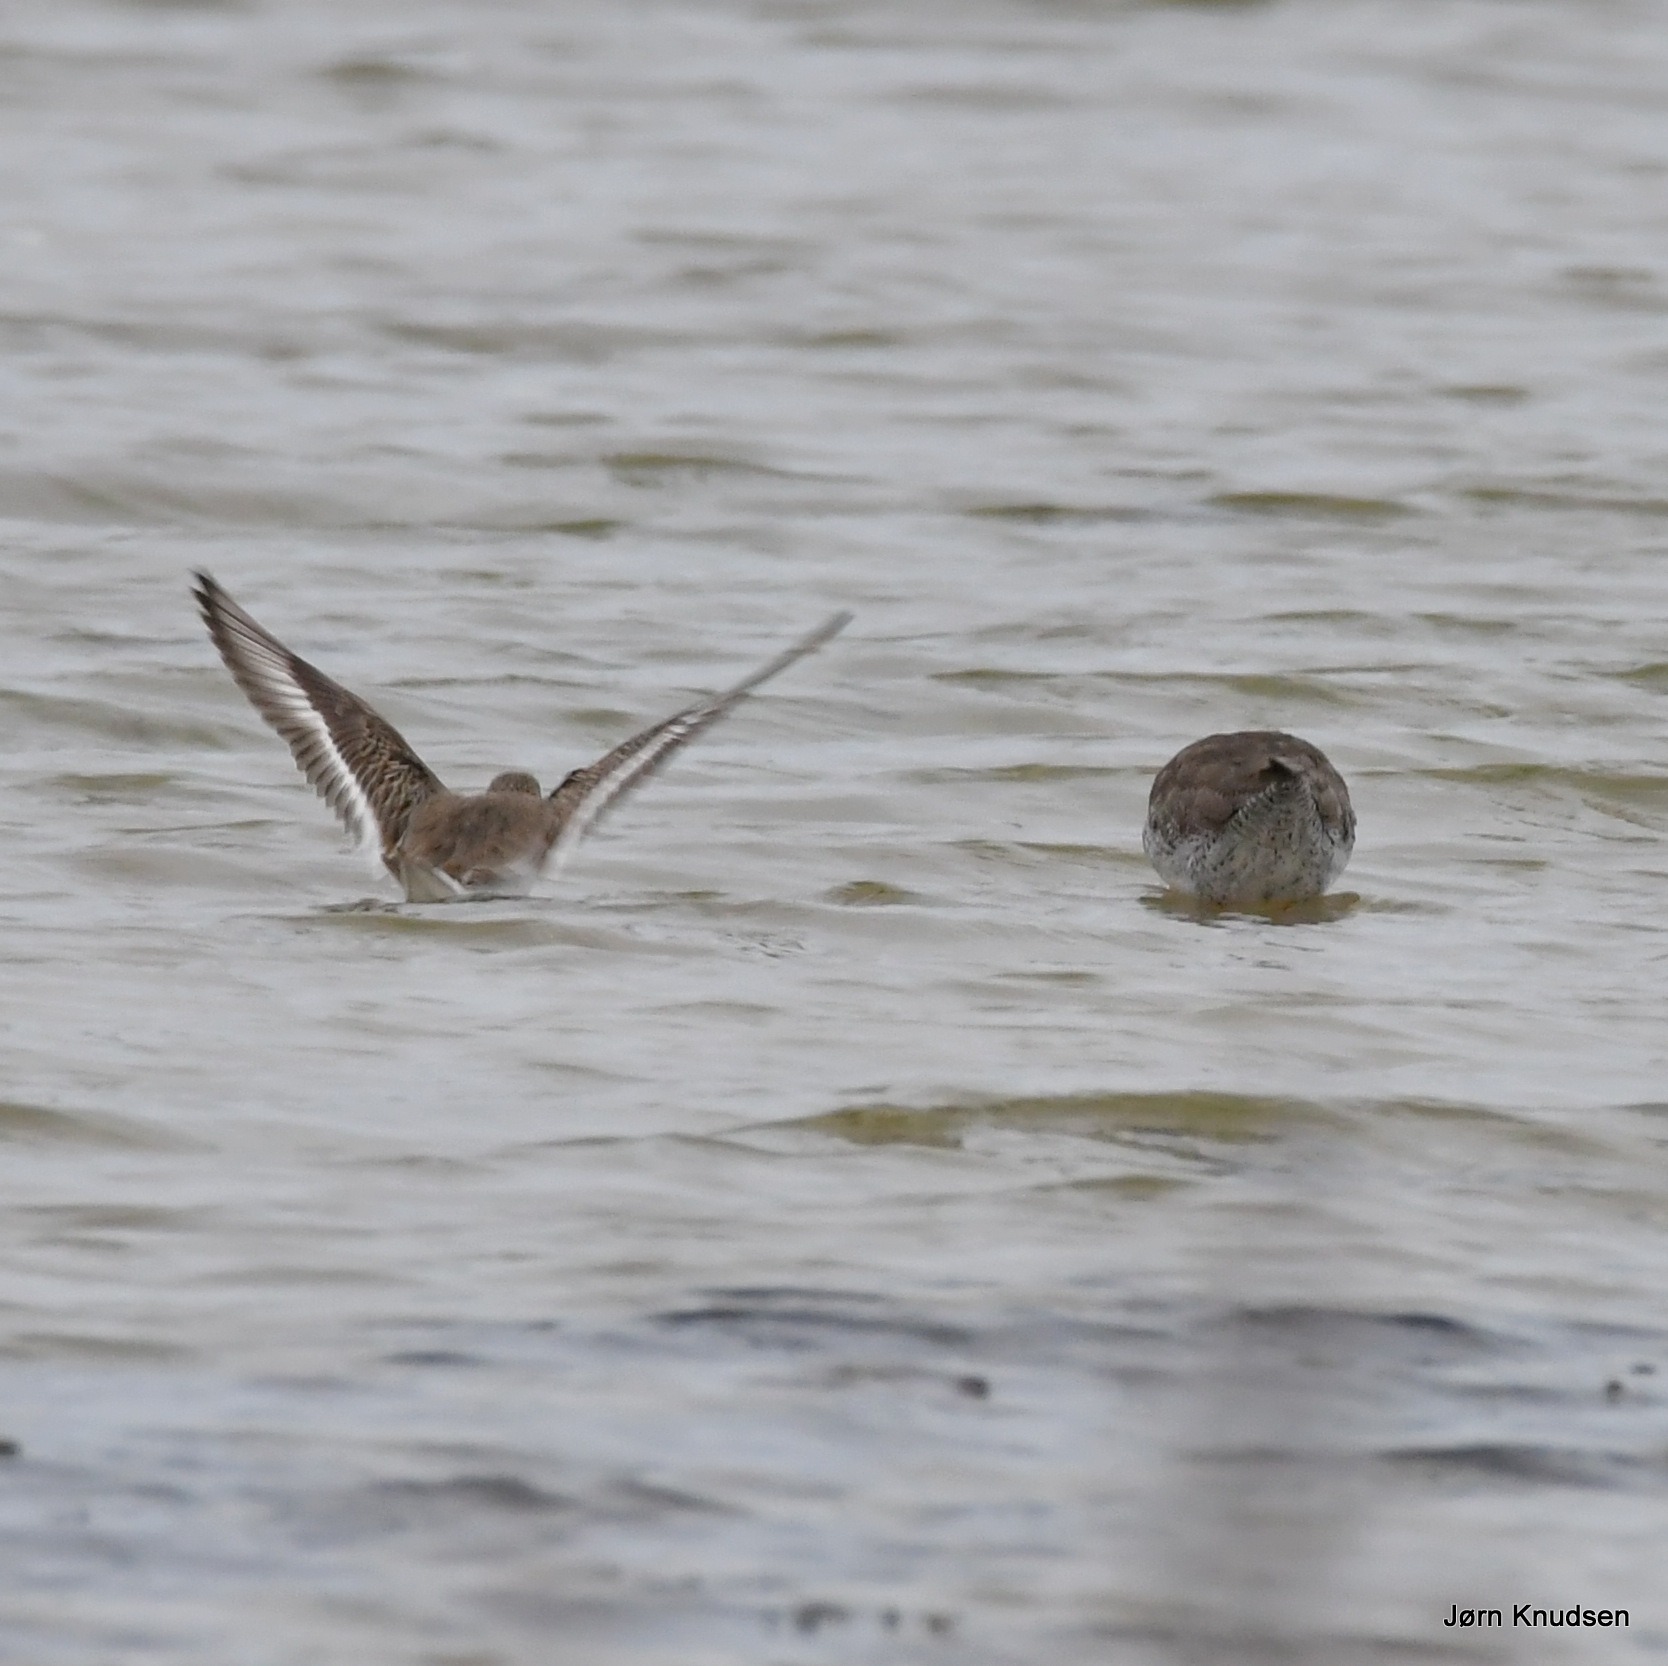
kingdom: Animalia
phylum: Chordata
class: Aves
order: Charadriiformes
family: Scolopacidae
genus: Calidris
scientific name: Calidris alpina
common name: Almindelig ryle
